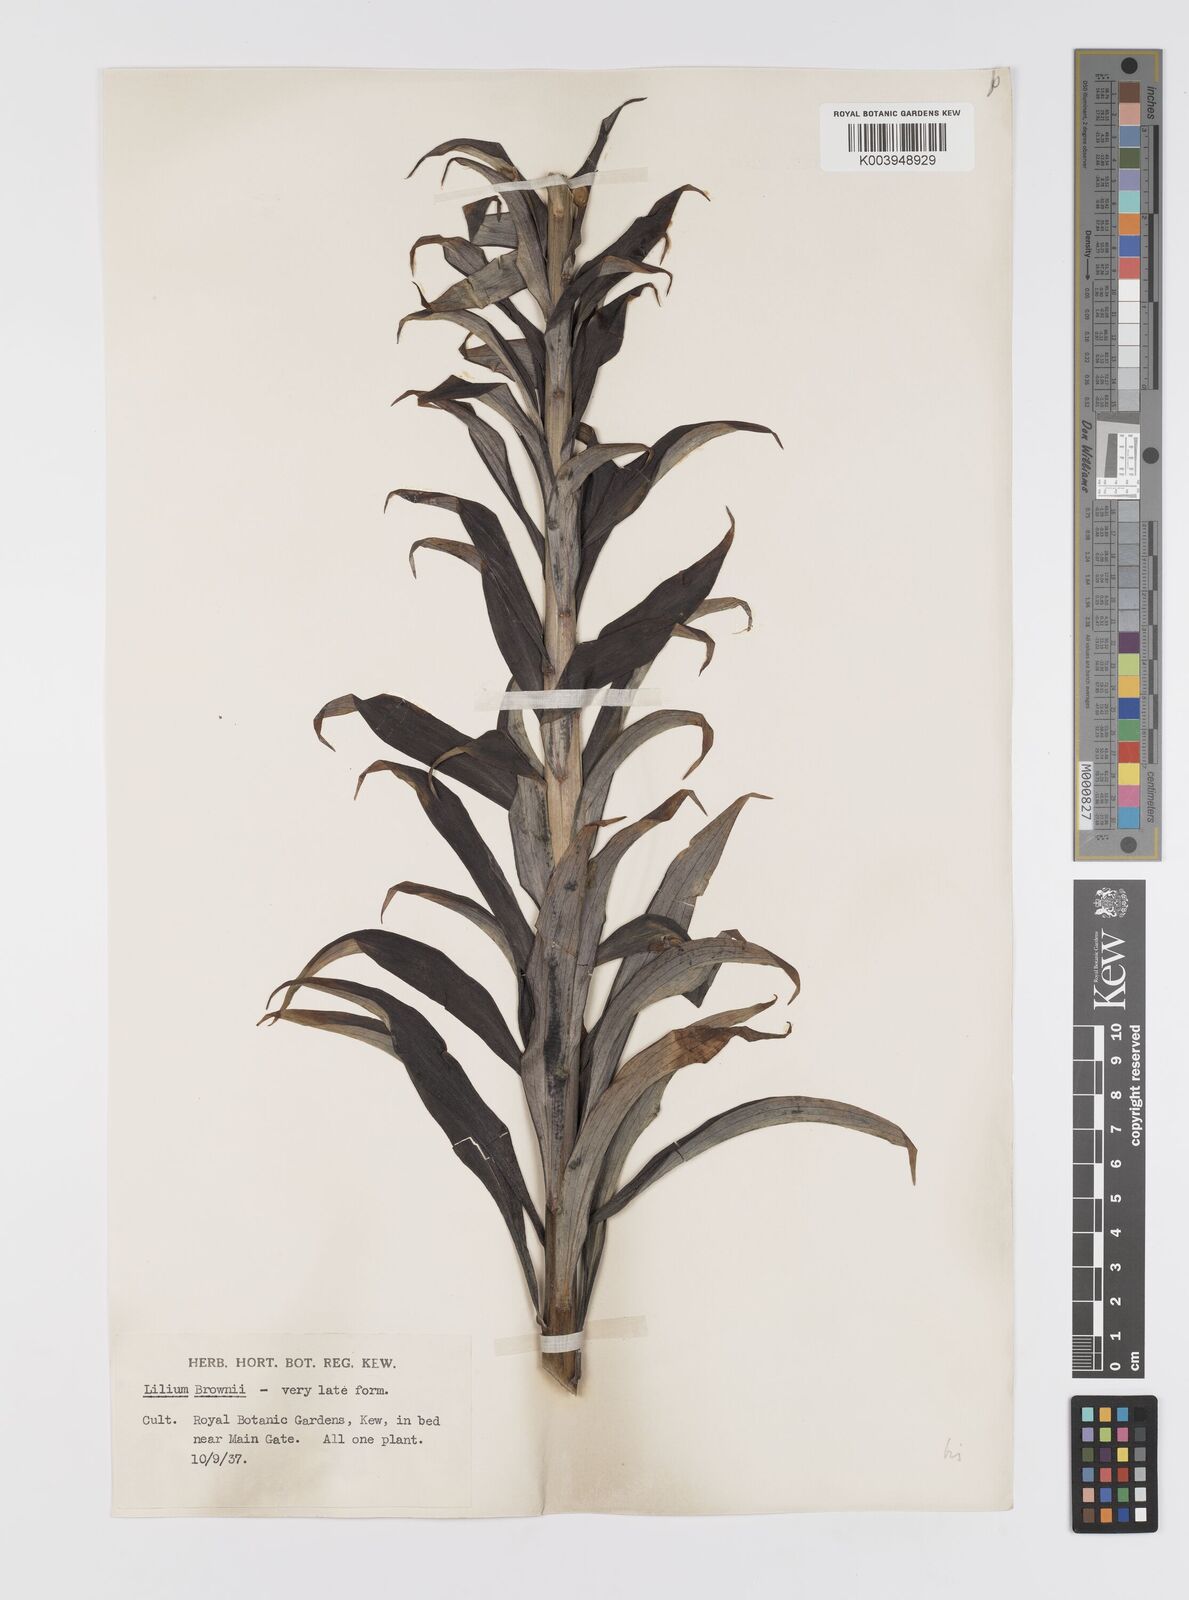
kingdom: Plantae
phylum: Tracheophyta
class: Liliopsida
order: Liliales
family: Liliaceae
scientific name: Liliaceae
